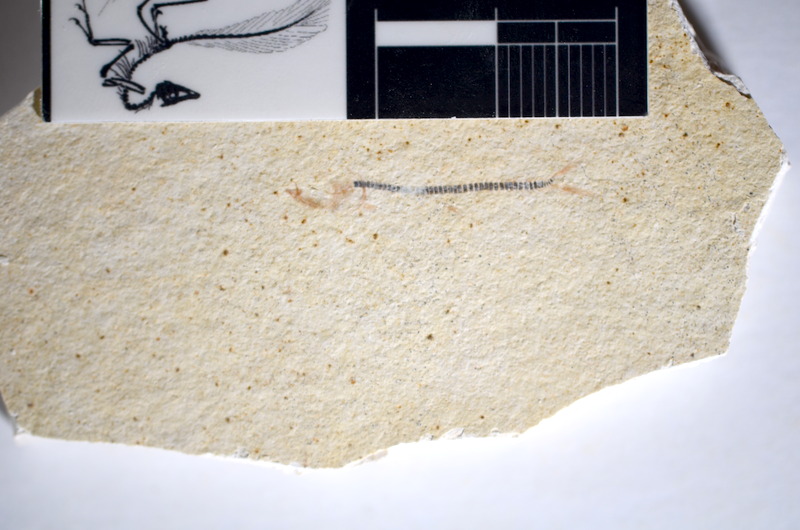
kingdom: Animalia
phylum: Chordata
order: Salmoniformes
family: Orthogonikleithridae
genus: Orthogonikleithrus
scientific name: Orthogonikleithrus hoelli
